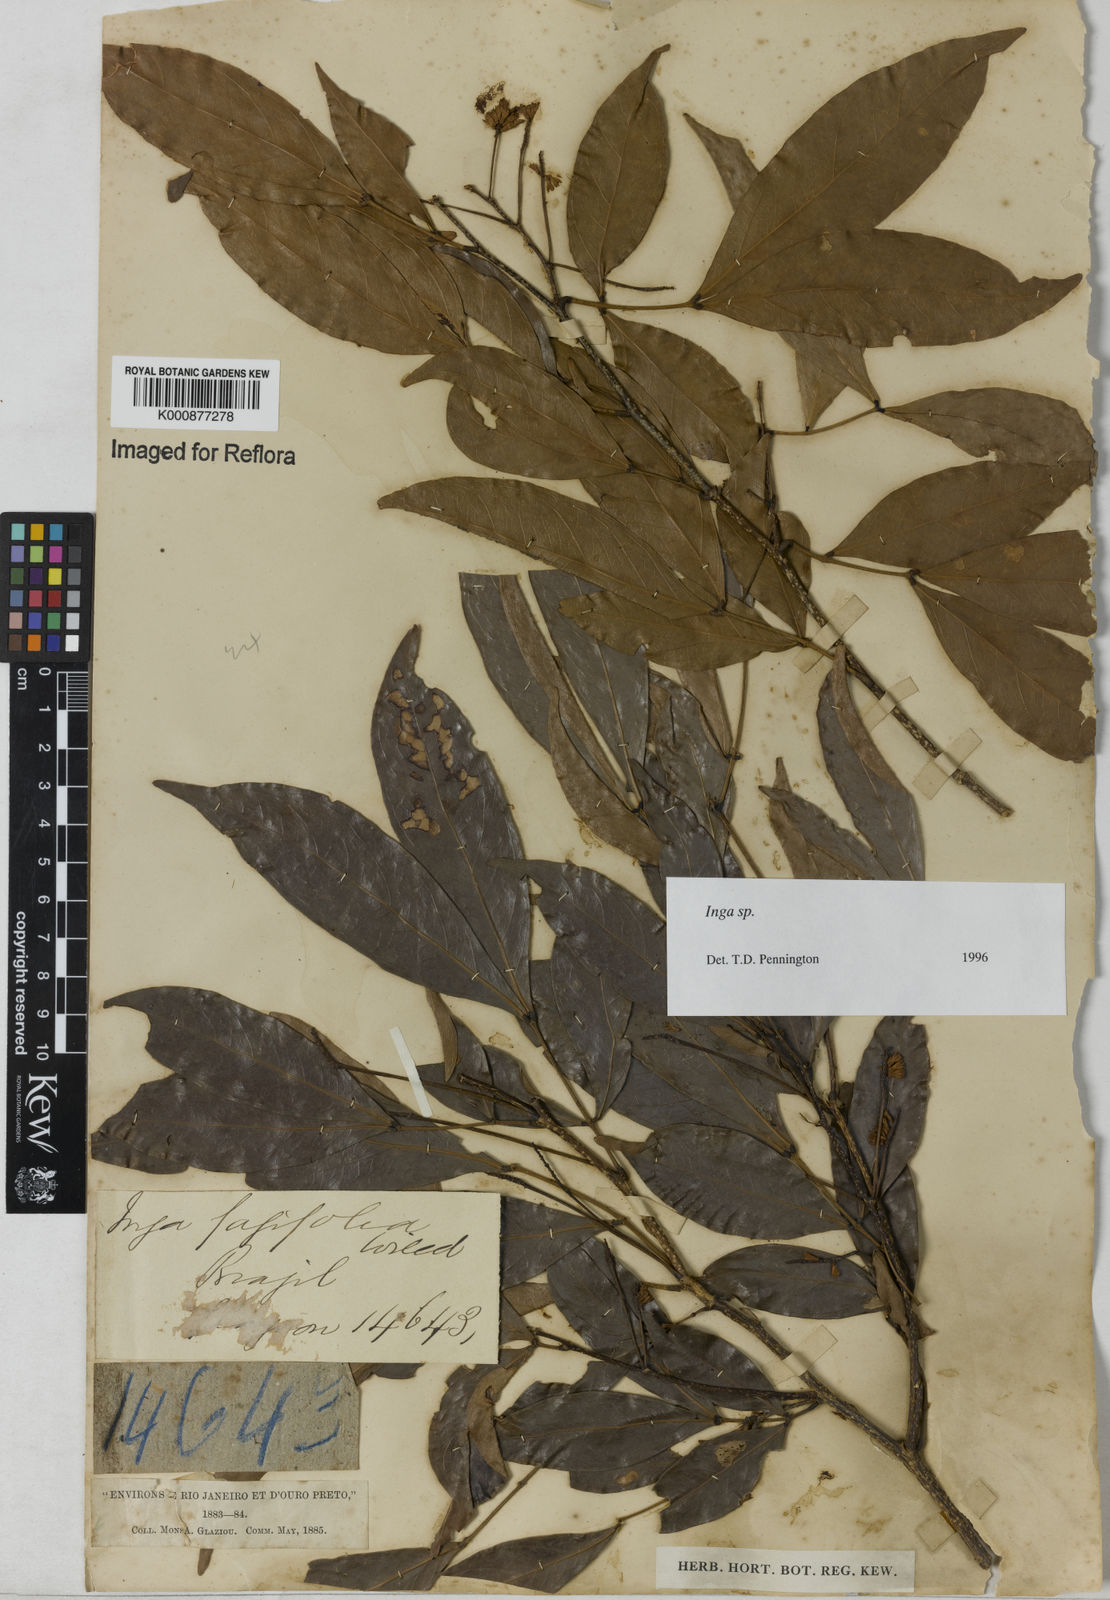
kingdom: Plantae
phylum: Tracheophyta
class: Magnoliopsida
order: Fabales
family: Fabaceae
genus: Inga
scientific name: Inga
